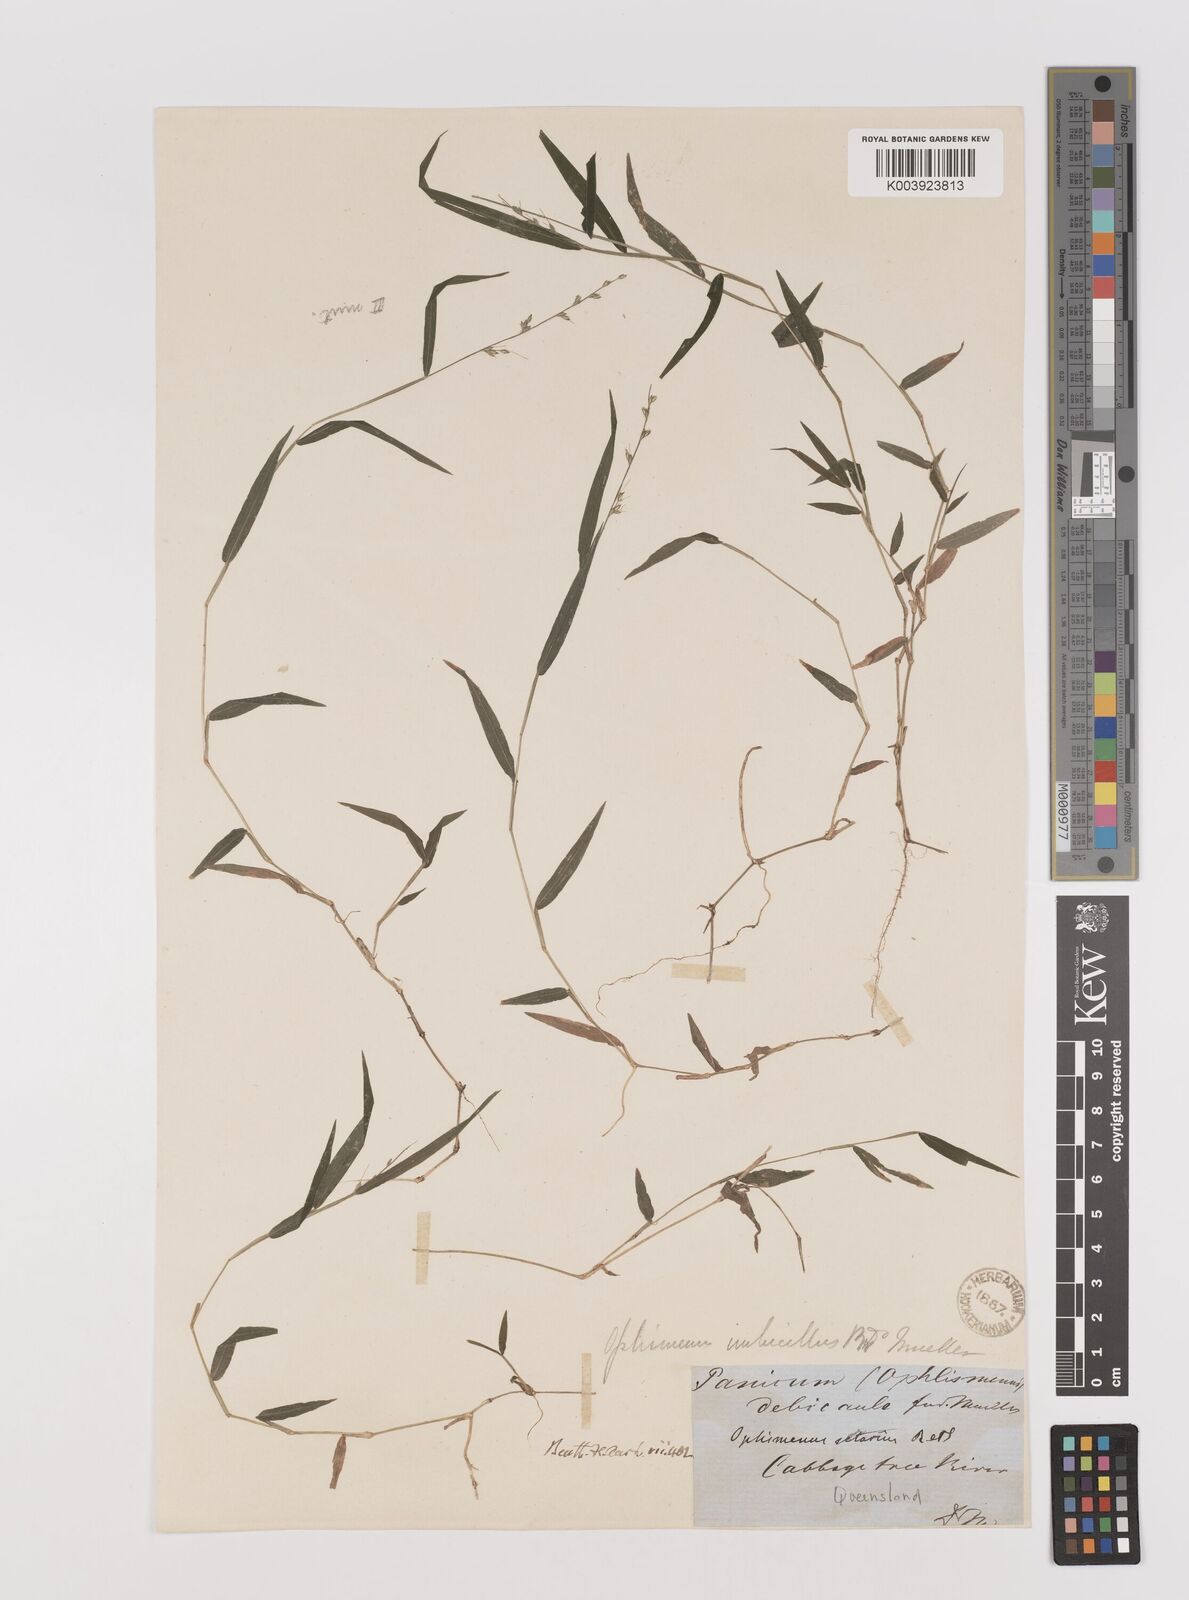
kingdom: Plantae
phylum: Tracheophyta
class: Liliopsida
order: Poales
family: Poaceae
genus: Oplismenus
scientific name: Oplismenus hirtellus
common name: Basketgrass
